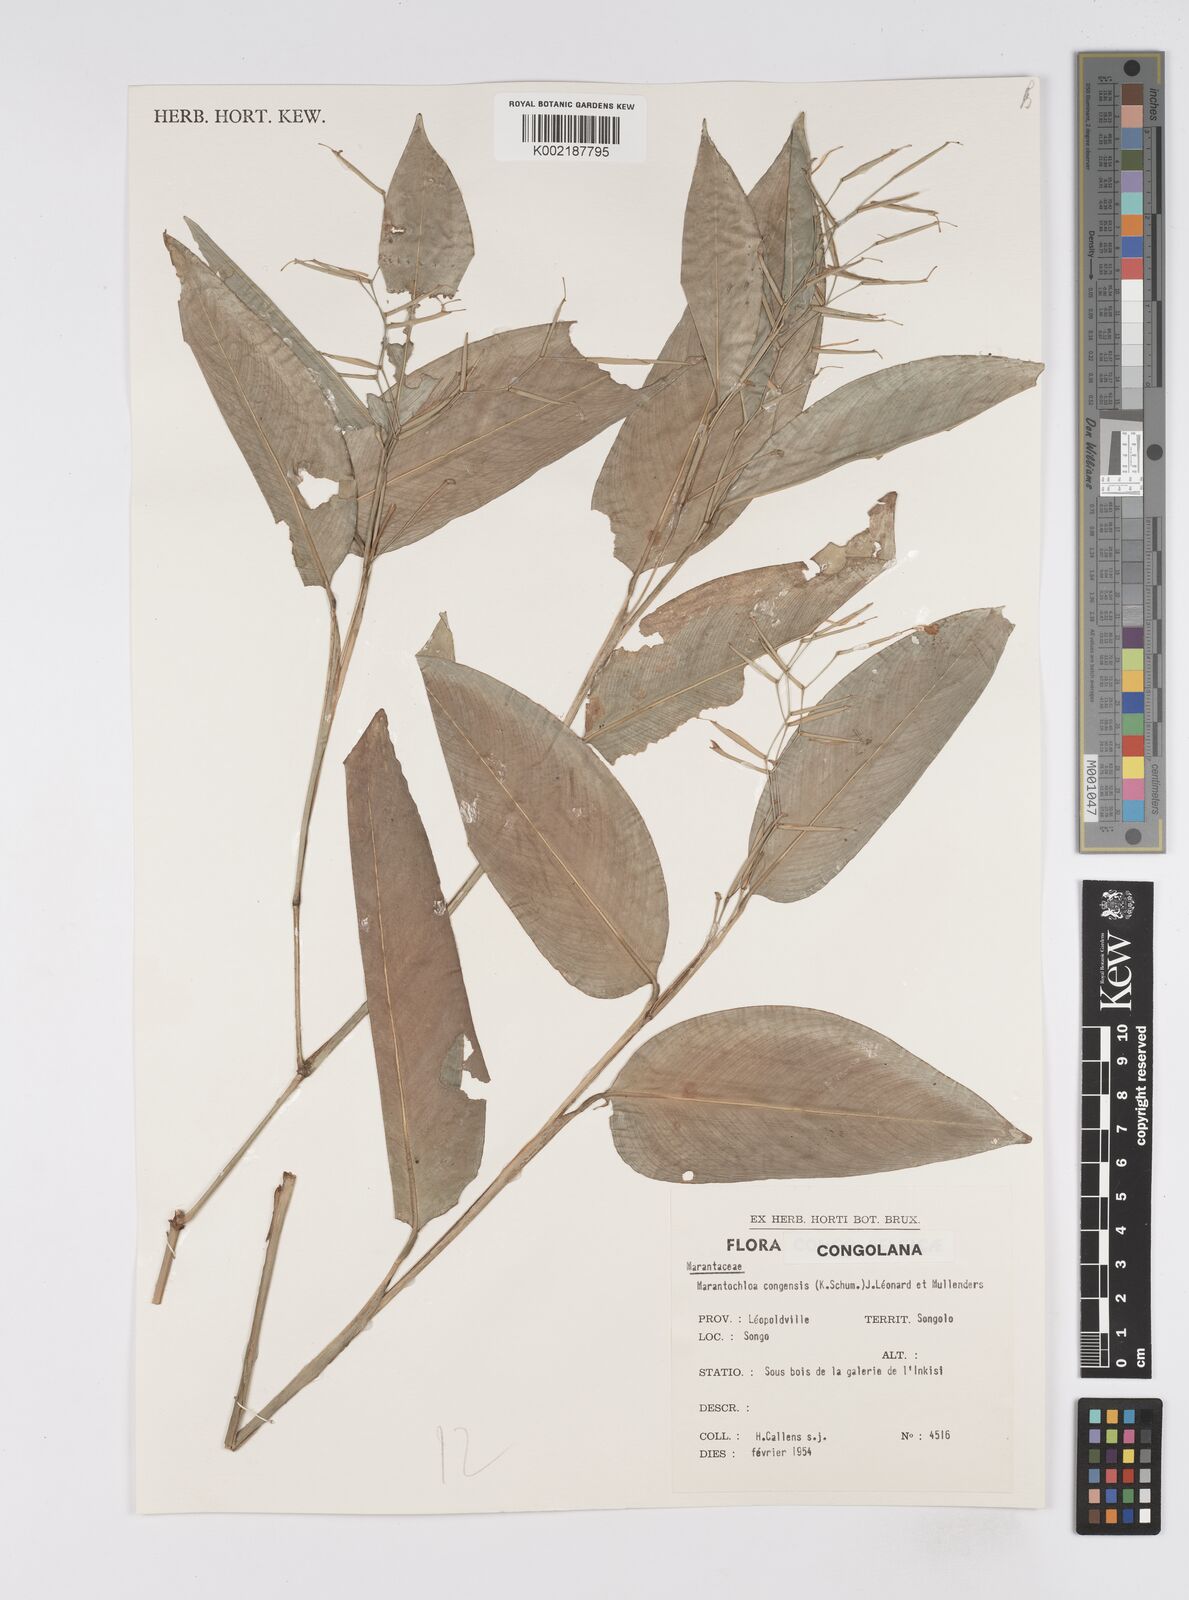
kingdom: Plantae
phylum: Tracheophyta
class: Liliopsida
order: Zingiberales
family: Marantaceae
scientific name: Marantaceae
